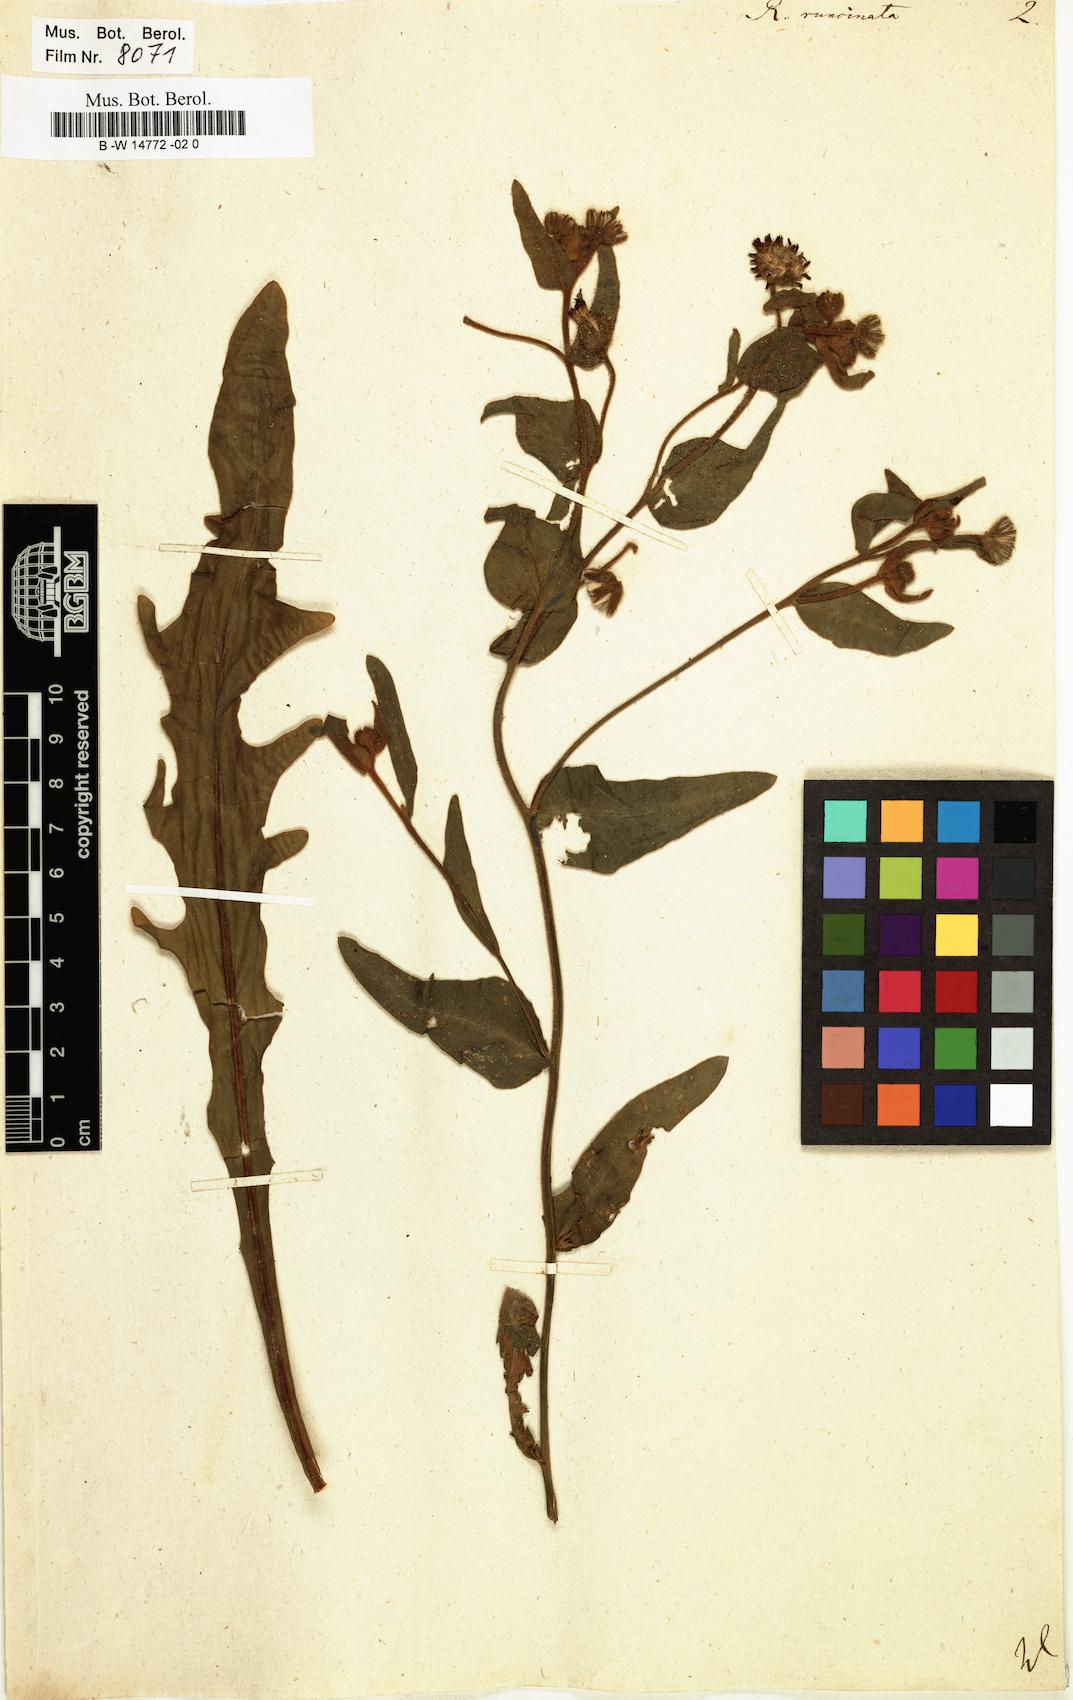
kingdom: Plantae
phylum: Tracheophyta
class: Magnoliopsida
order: Asterales
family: Asteraceae
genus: Andryala
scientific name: Andryala integrifolia
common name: Common andryala
